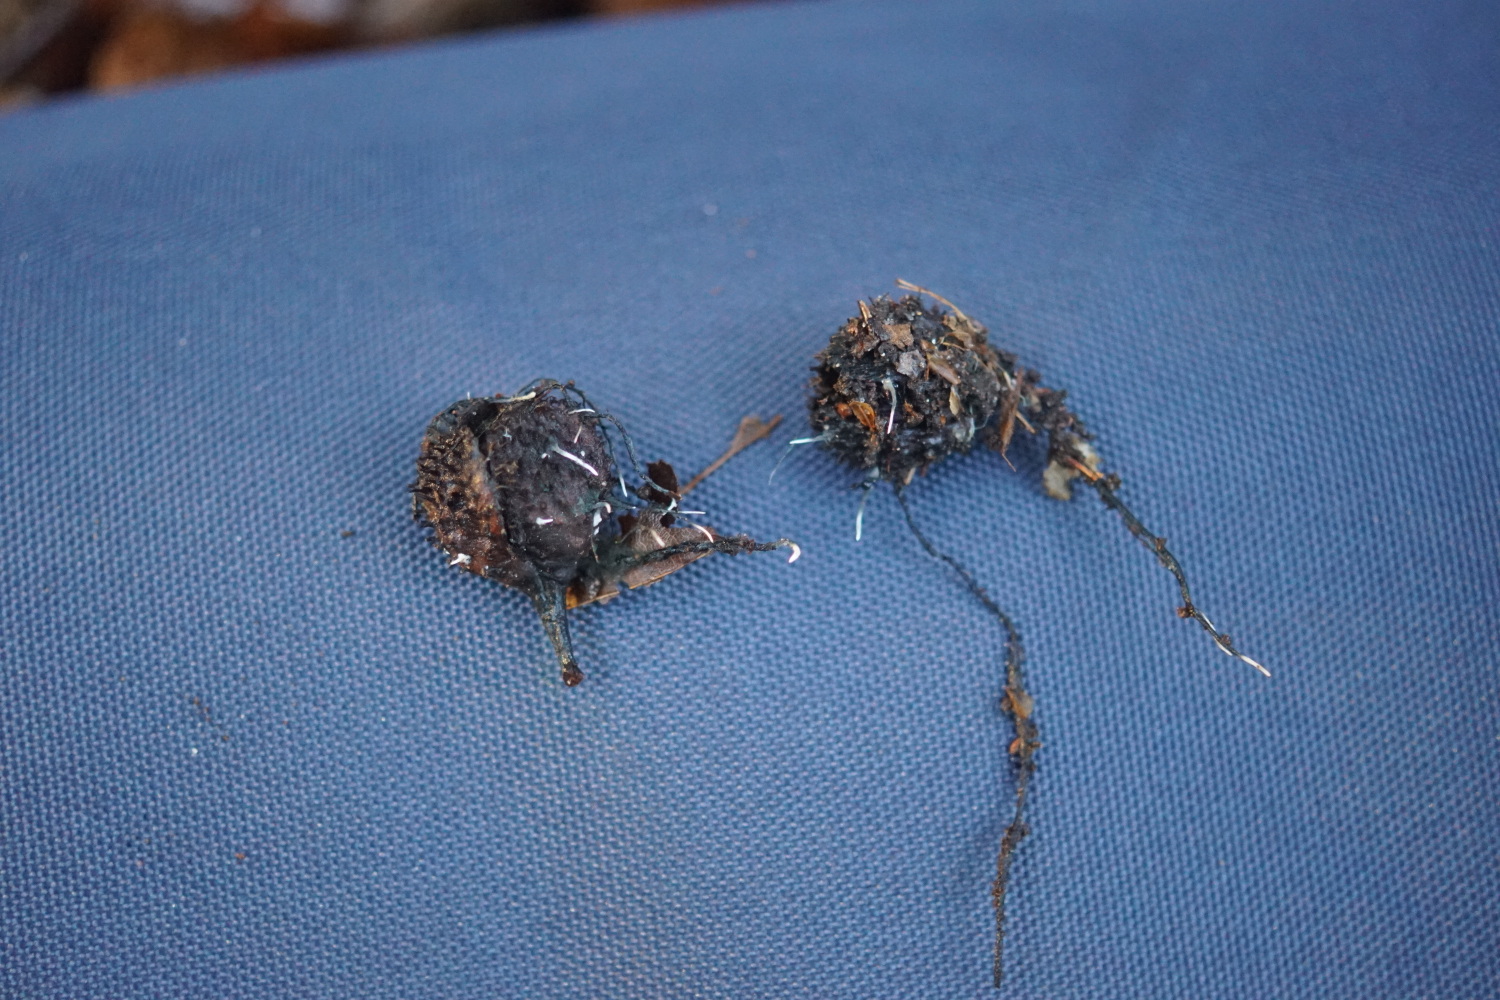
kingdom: Fungi
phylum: Ascomycota
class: Sordariomycetes
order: Xylariales
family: Xylariaceae
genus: Xylaria
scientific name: Xylaria carpophila
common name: bogskål-stødsvamp
